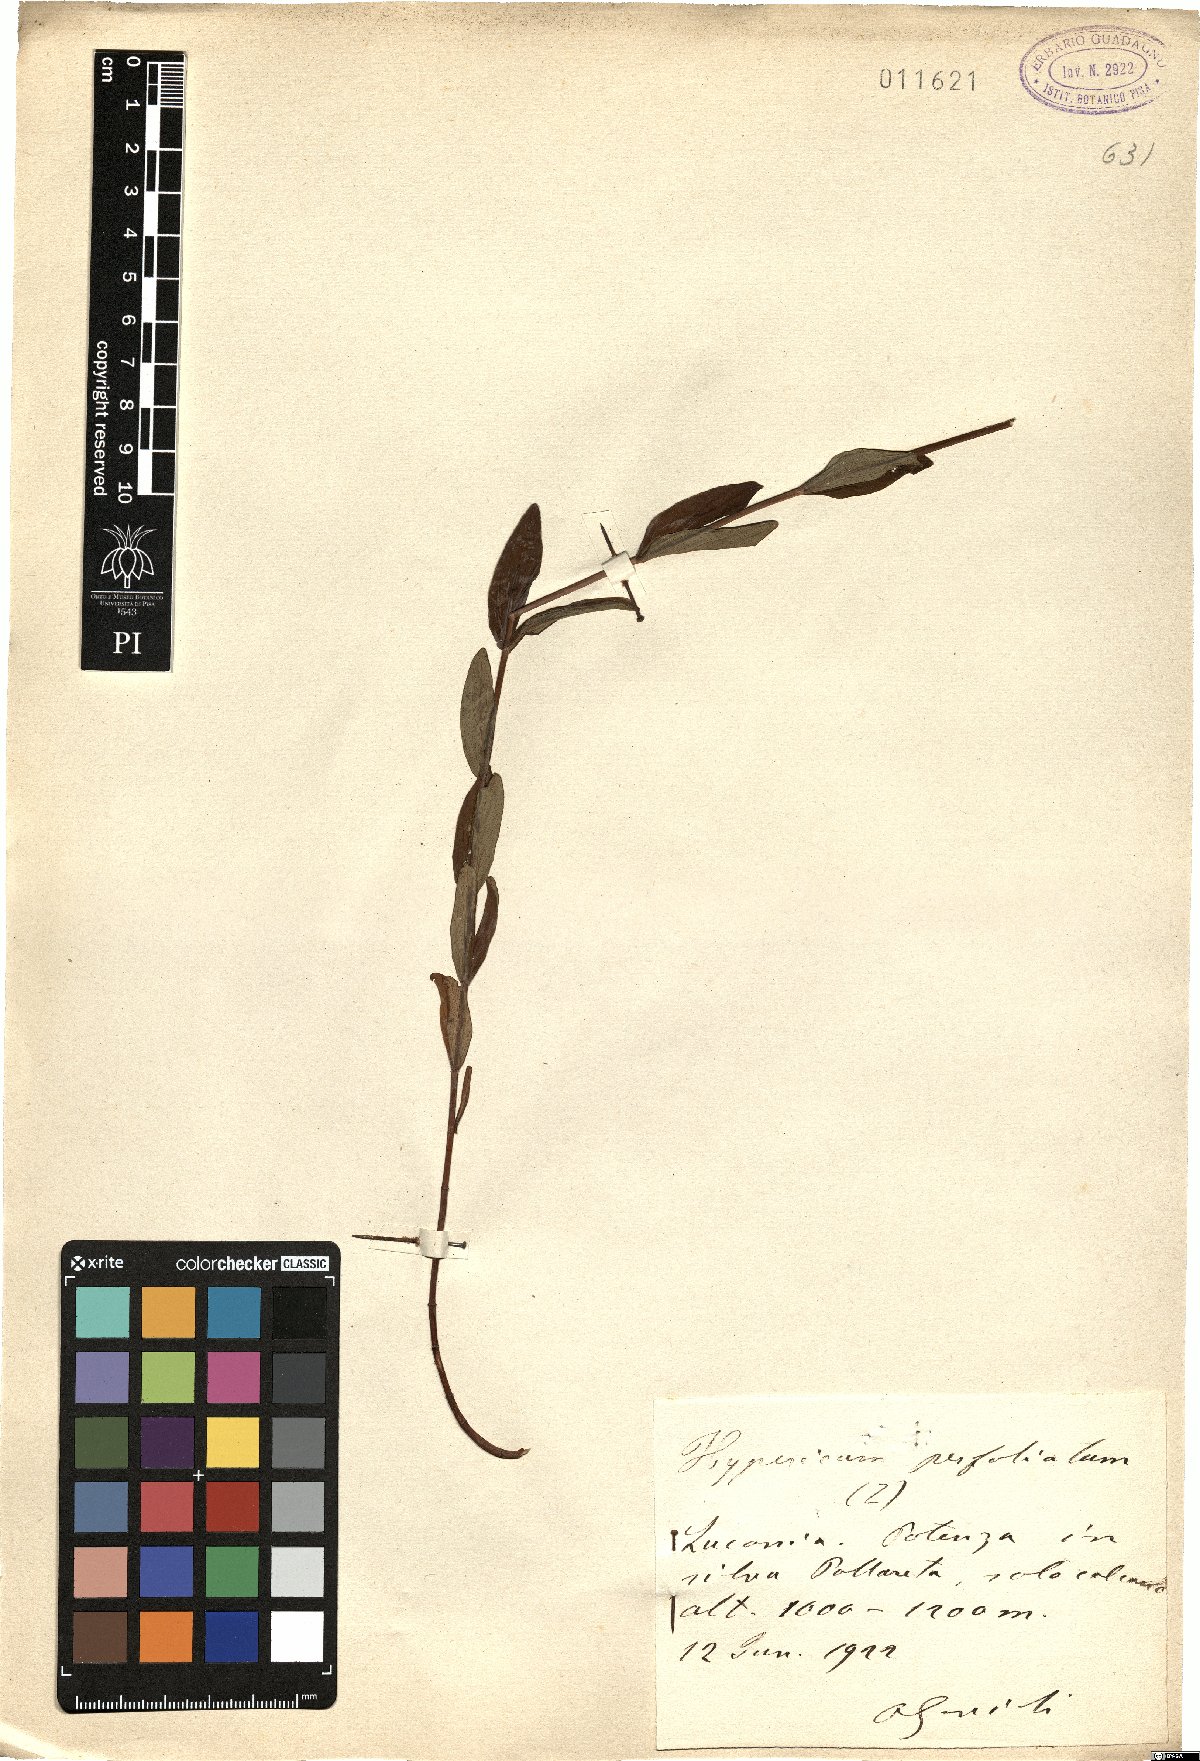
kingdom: Plantae
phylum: Tracheophyta
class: Magnoliopsida
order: Malpighiales
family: Hypericaceae
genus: Hypericum
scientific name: Hypericum perfoliatum
